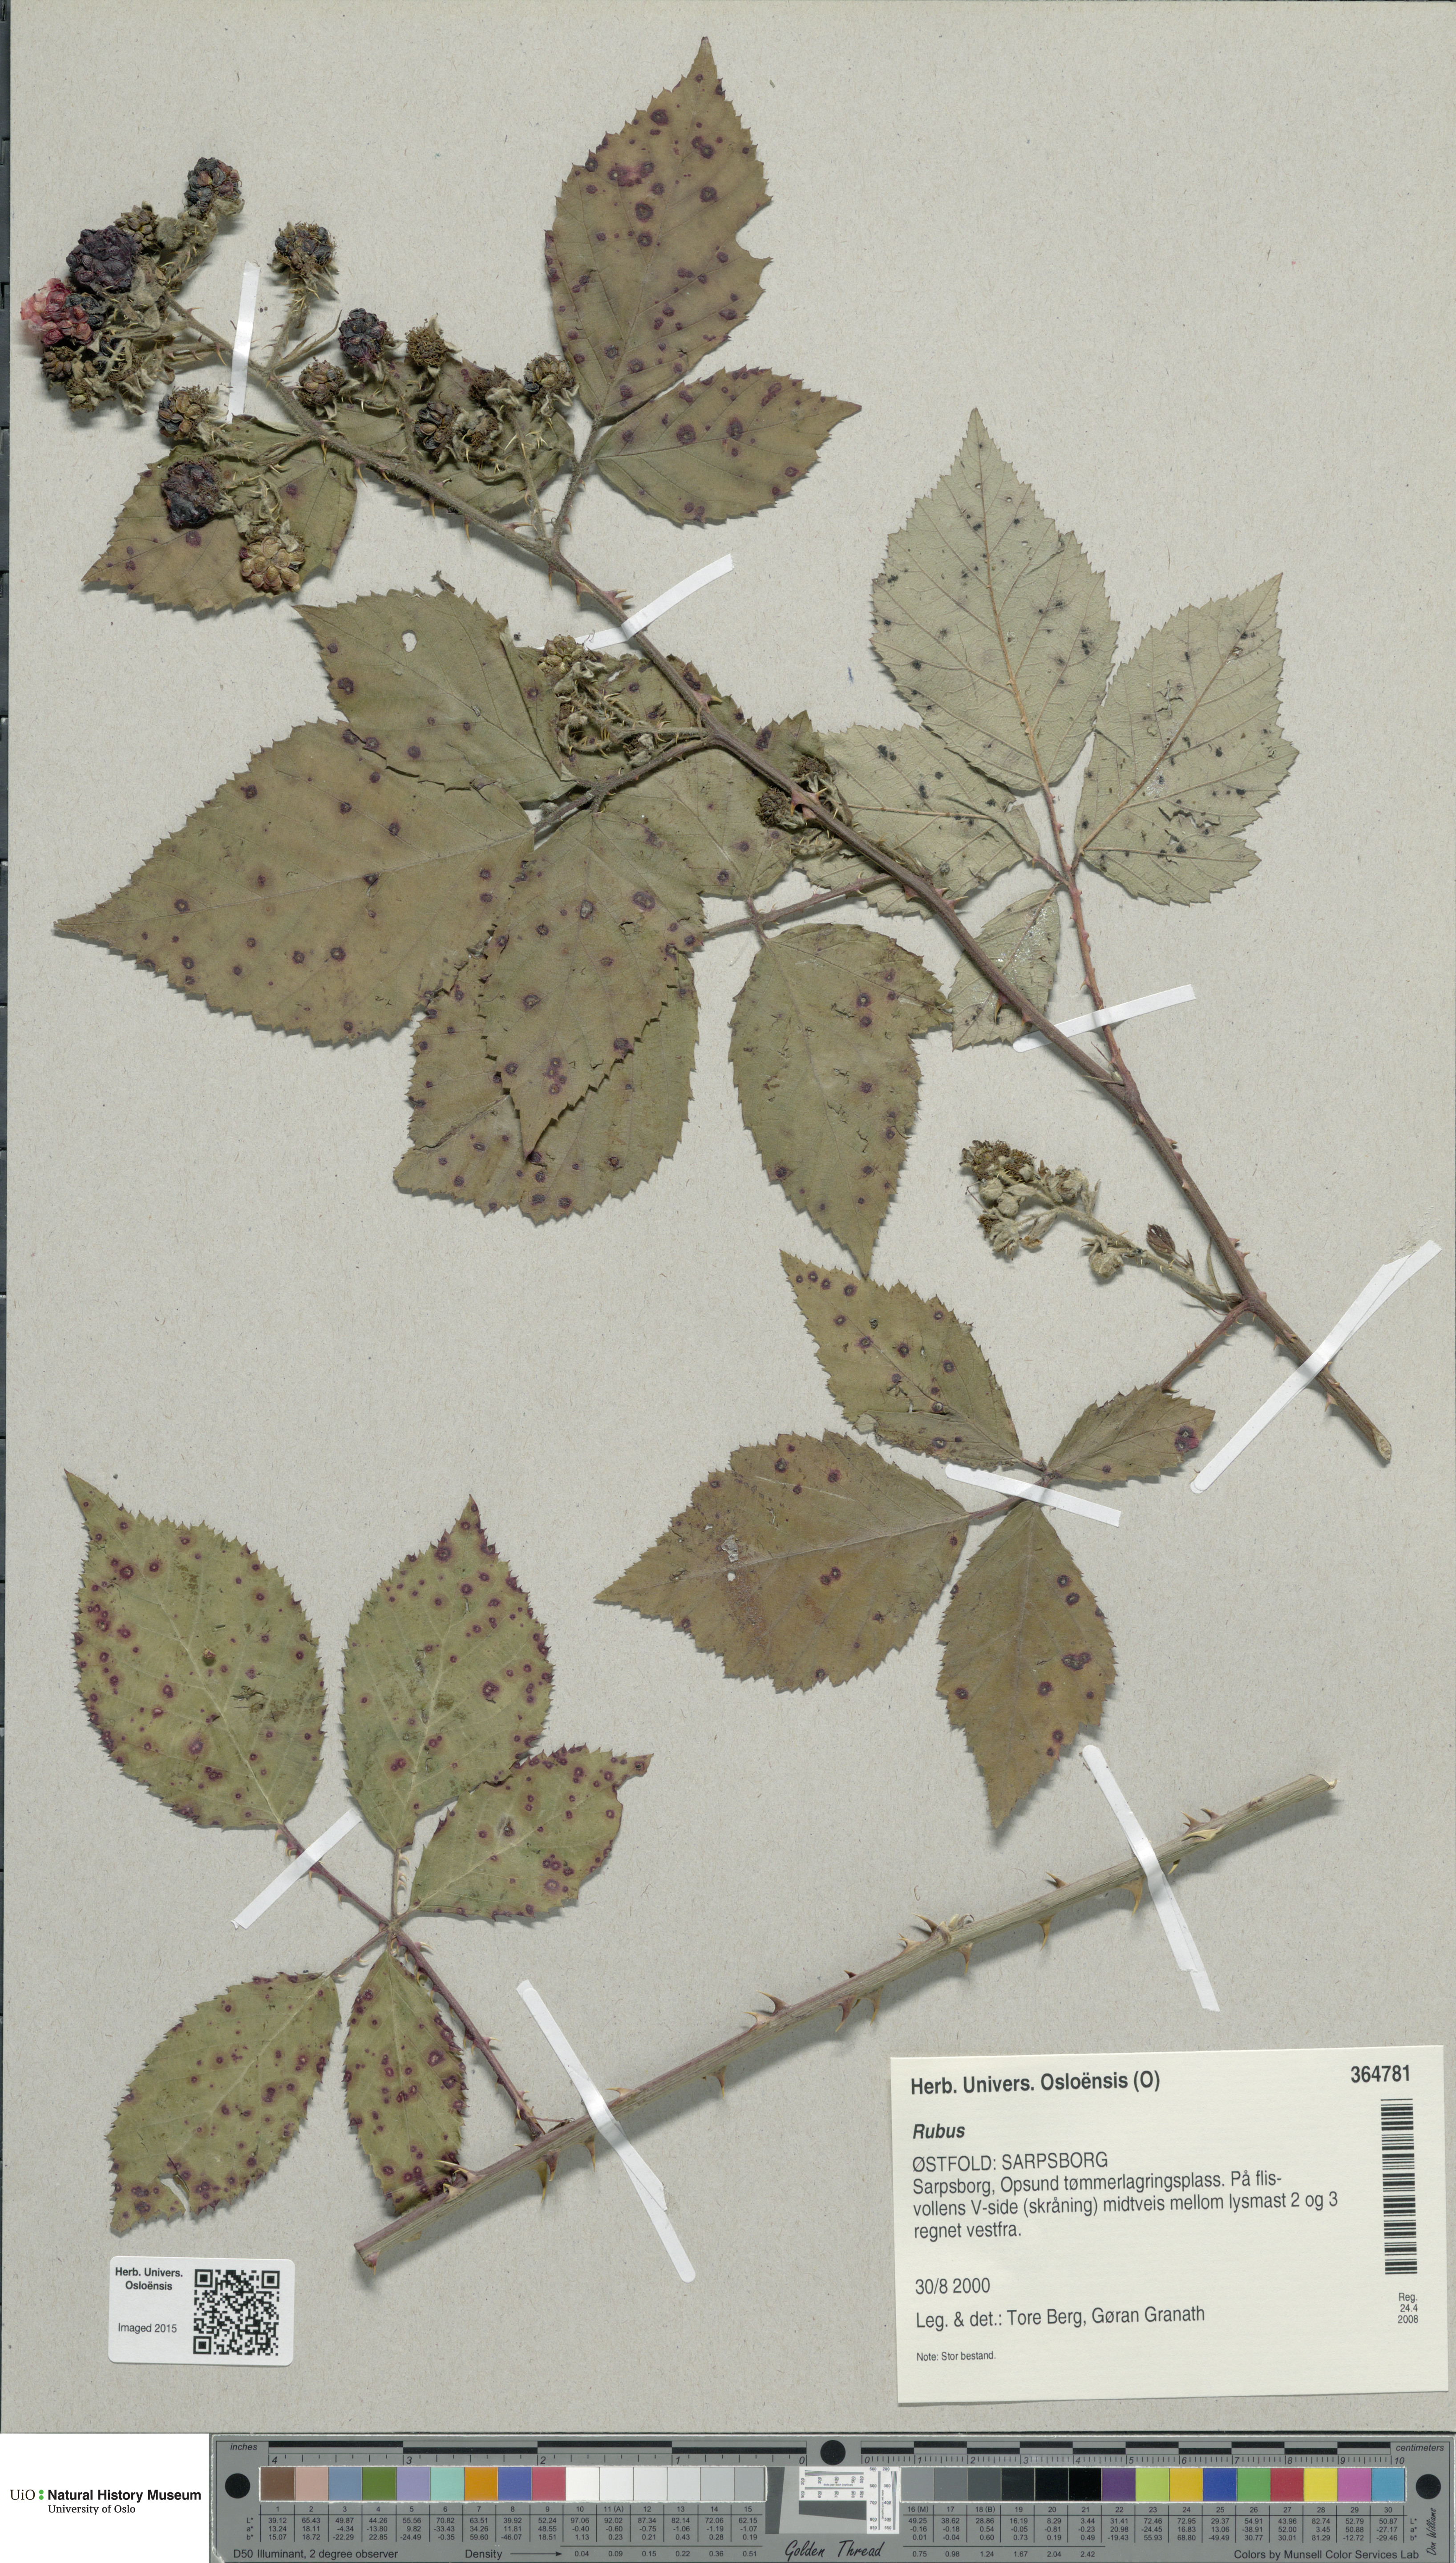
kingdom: Plantae
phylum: Tracheophyta
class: Magnoliopsida
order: Rosales
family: Rosaceae
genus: Rubus
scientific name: Rubus
